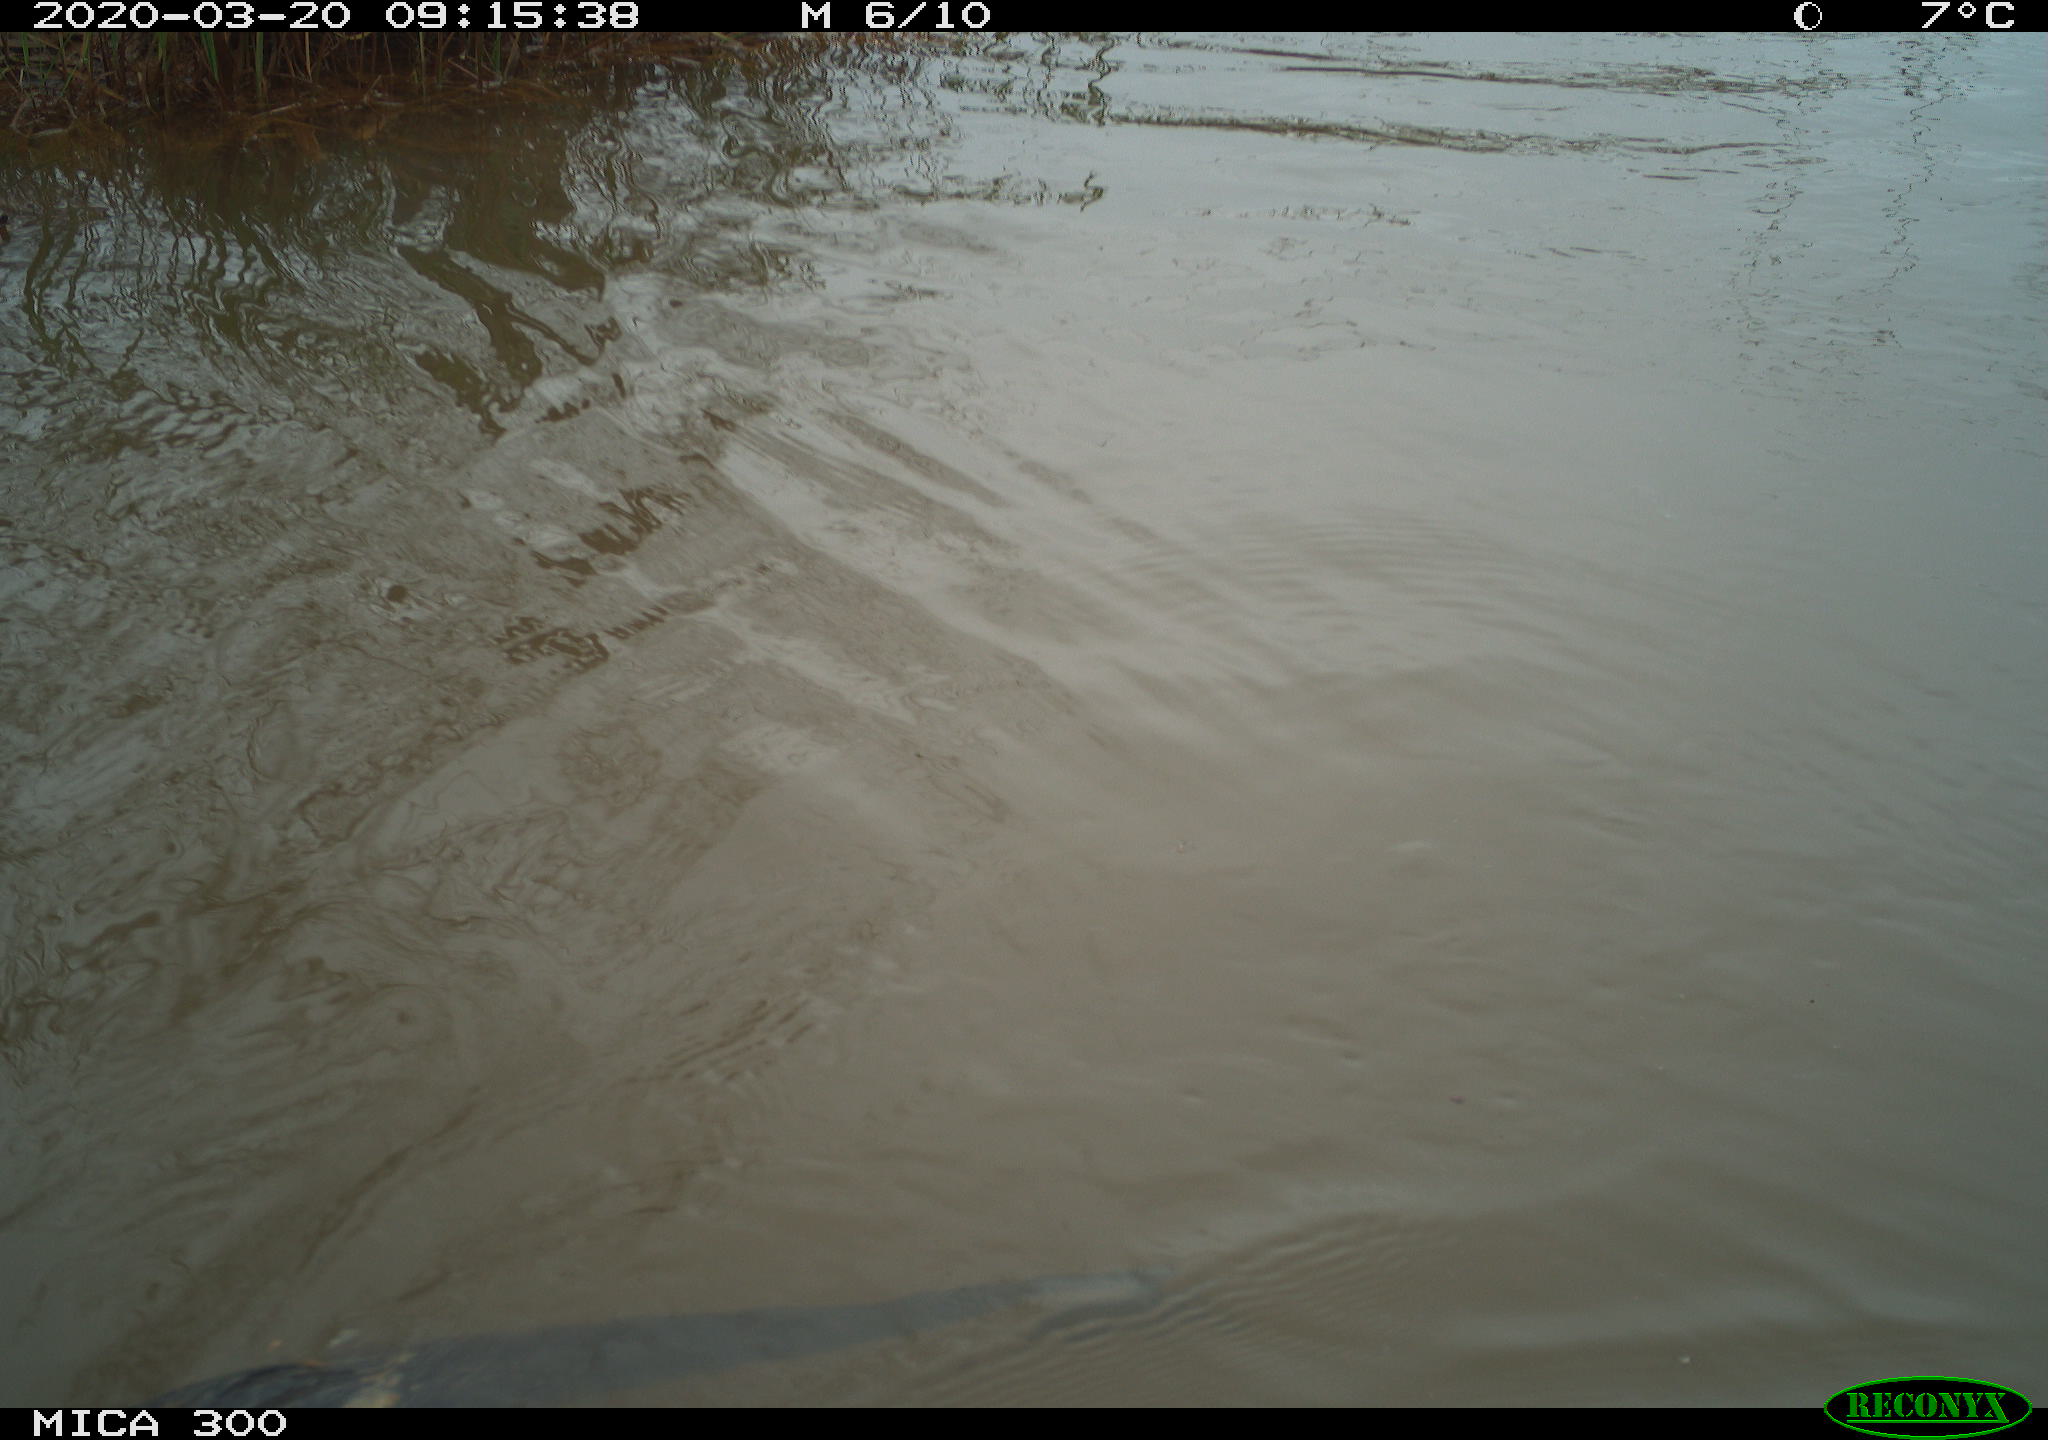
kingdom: Animalia
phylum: Chordata
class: Mammalia
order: Rodentia
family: Myocastoridae
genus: Myocastor
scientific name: Myocastor coypus
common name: Coypu
